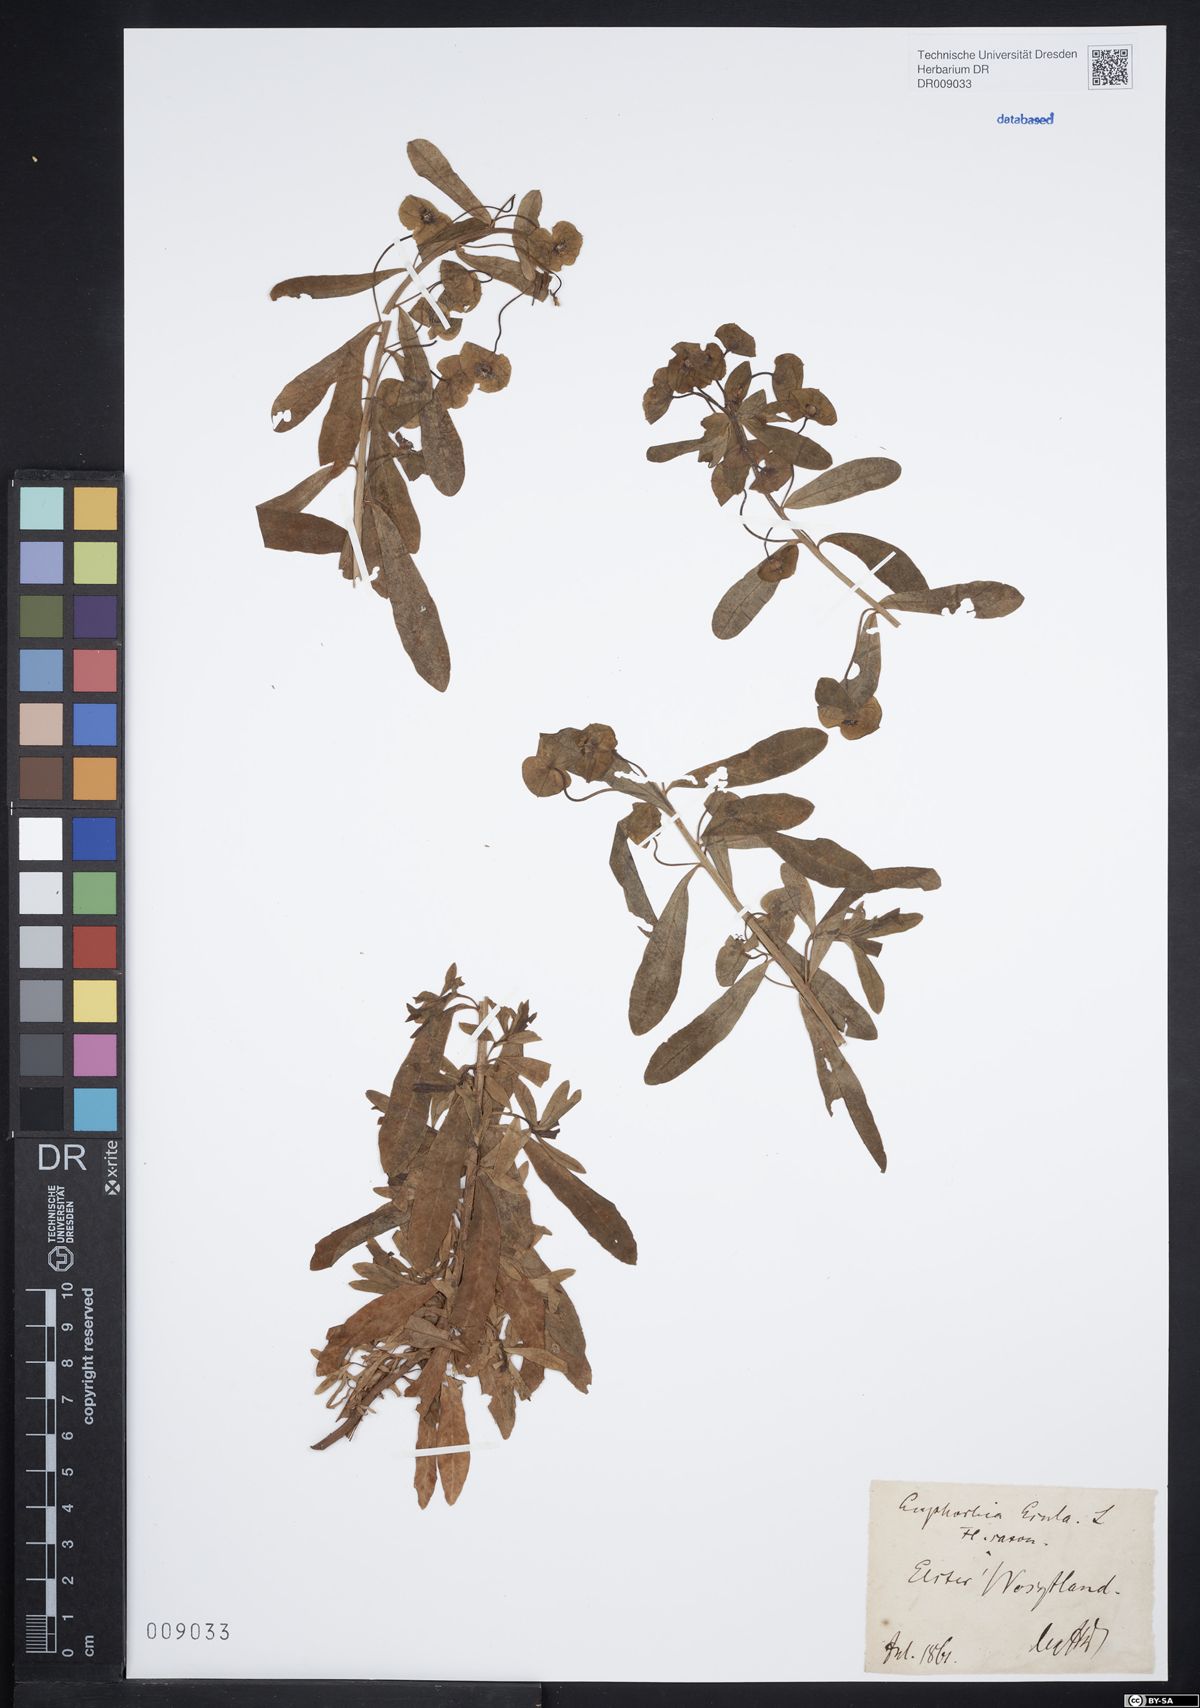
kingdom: Plantae
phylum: Tracheophyta
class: Magnoliopsida
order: Malpighiales
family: Euphorbiaceae
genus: Euphorbia
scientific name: Euphorbia esula
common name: Leafy spurge
